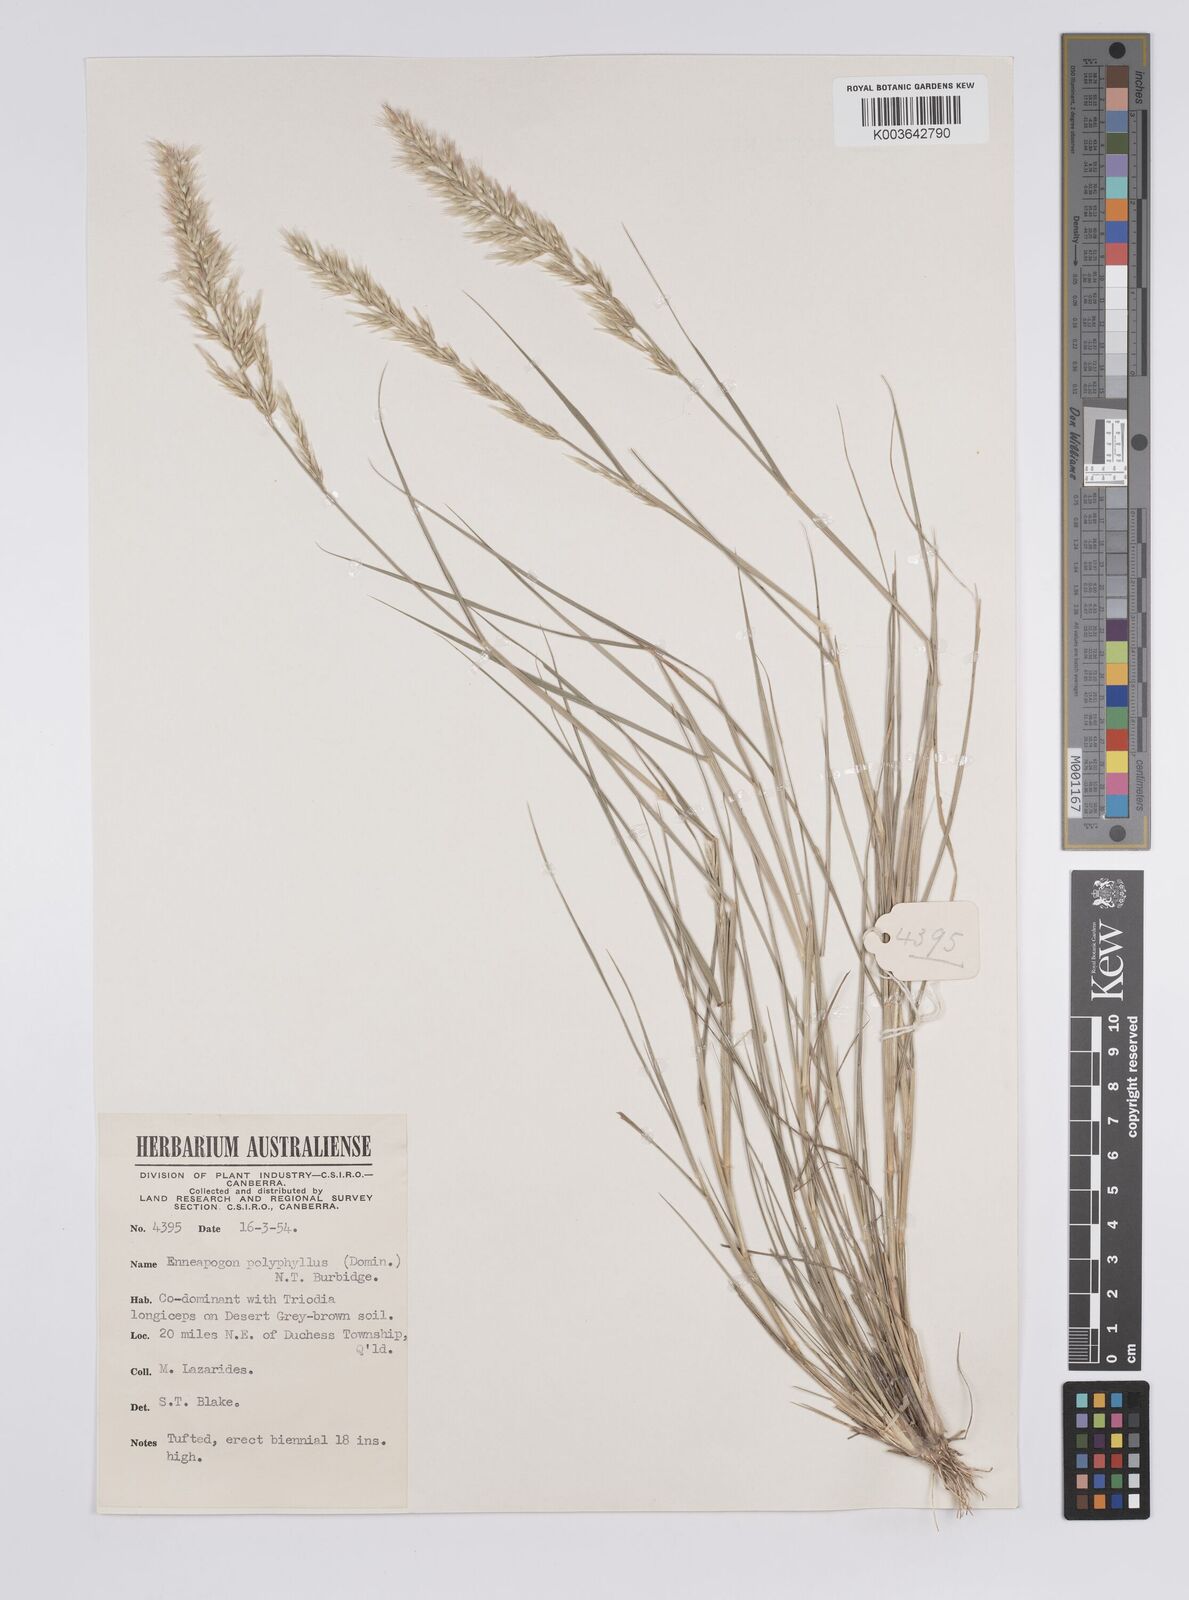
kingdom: Plantae
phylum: Tracheophyta
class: Liliopsida
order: Poales
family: Poaceae
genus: Enneapogon
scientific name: Enneapogon polyphyllus
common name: Leafy nineawn
